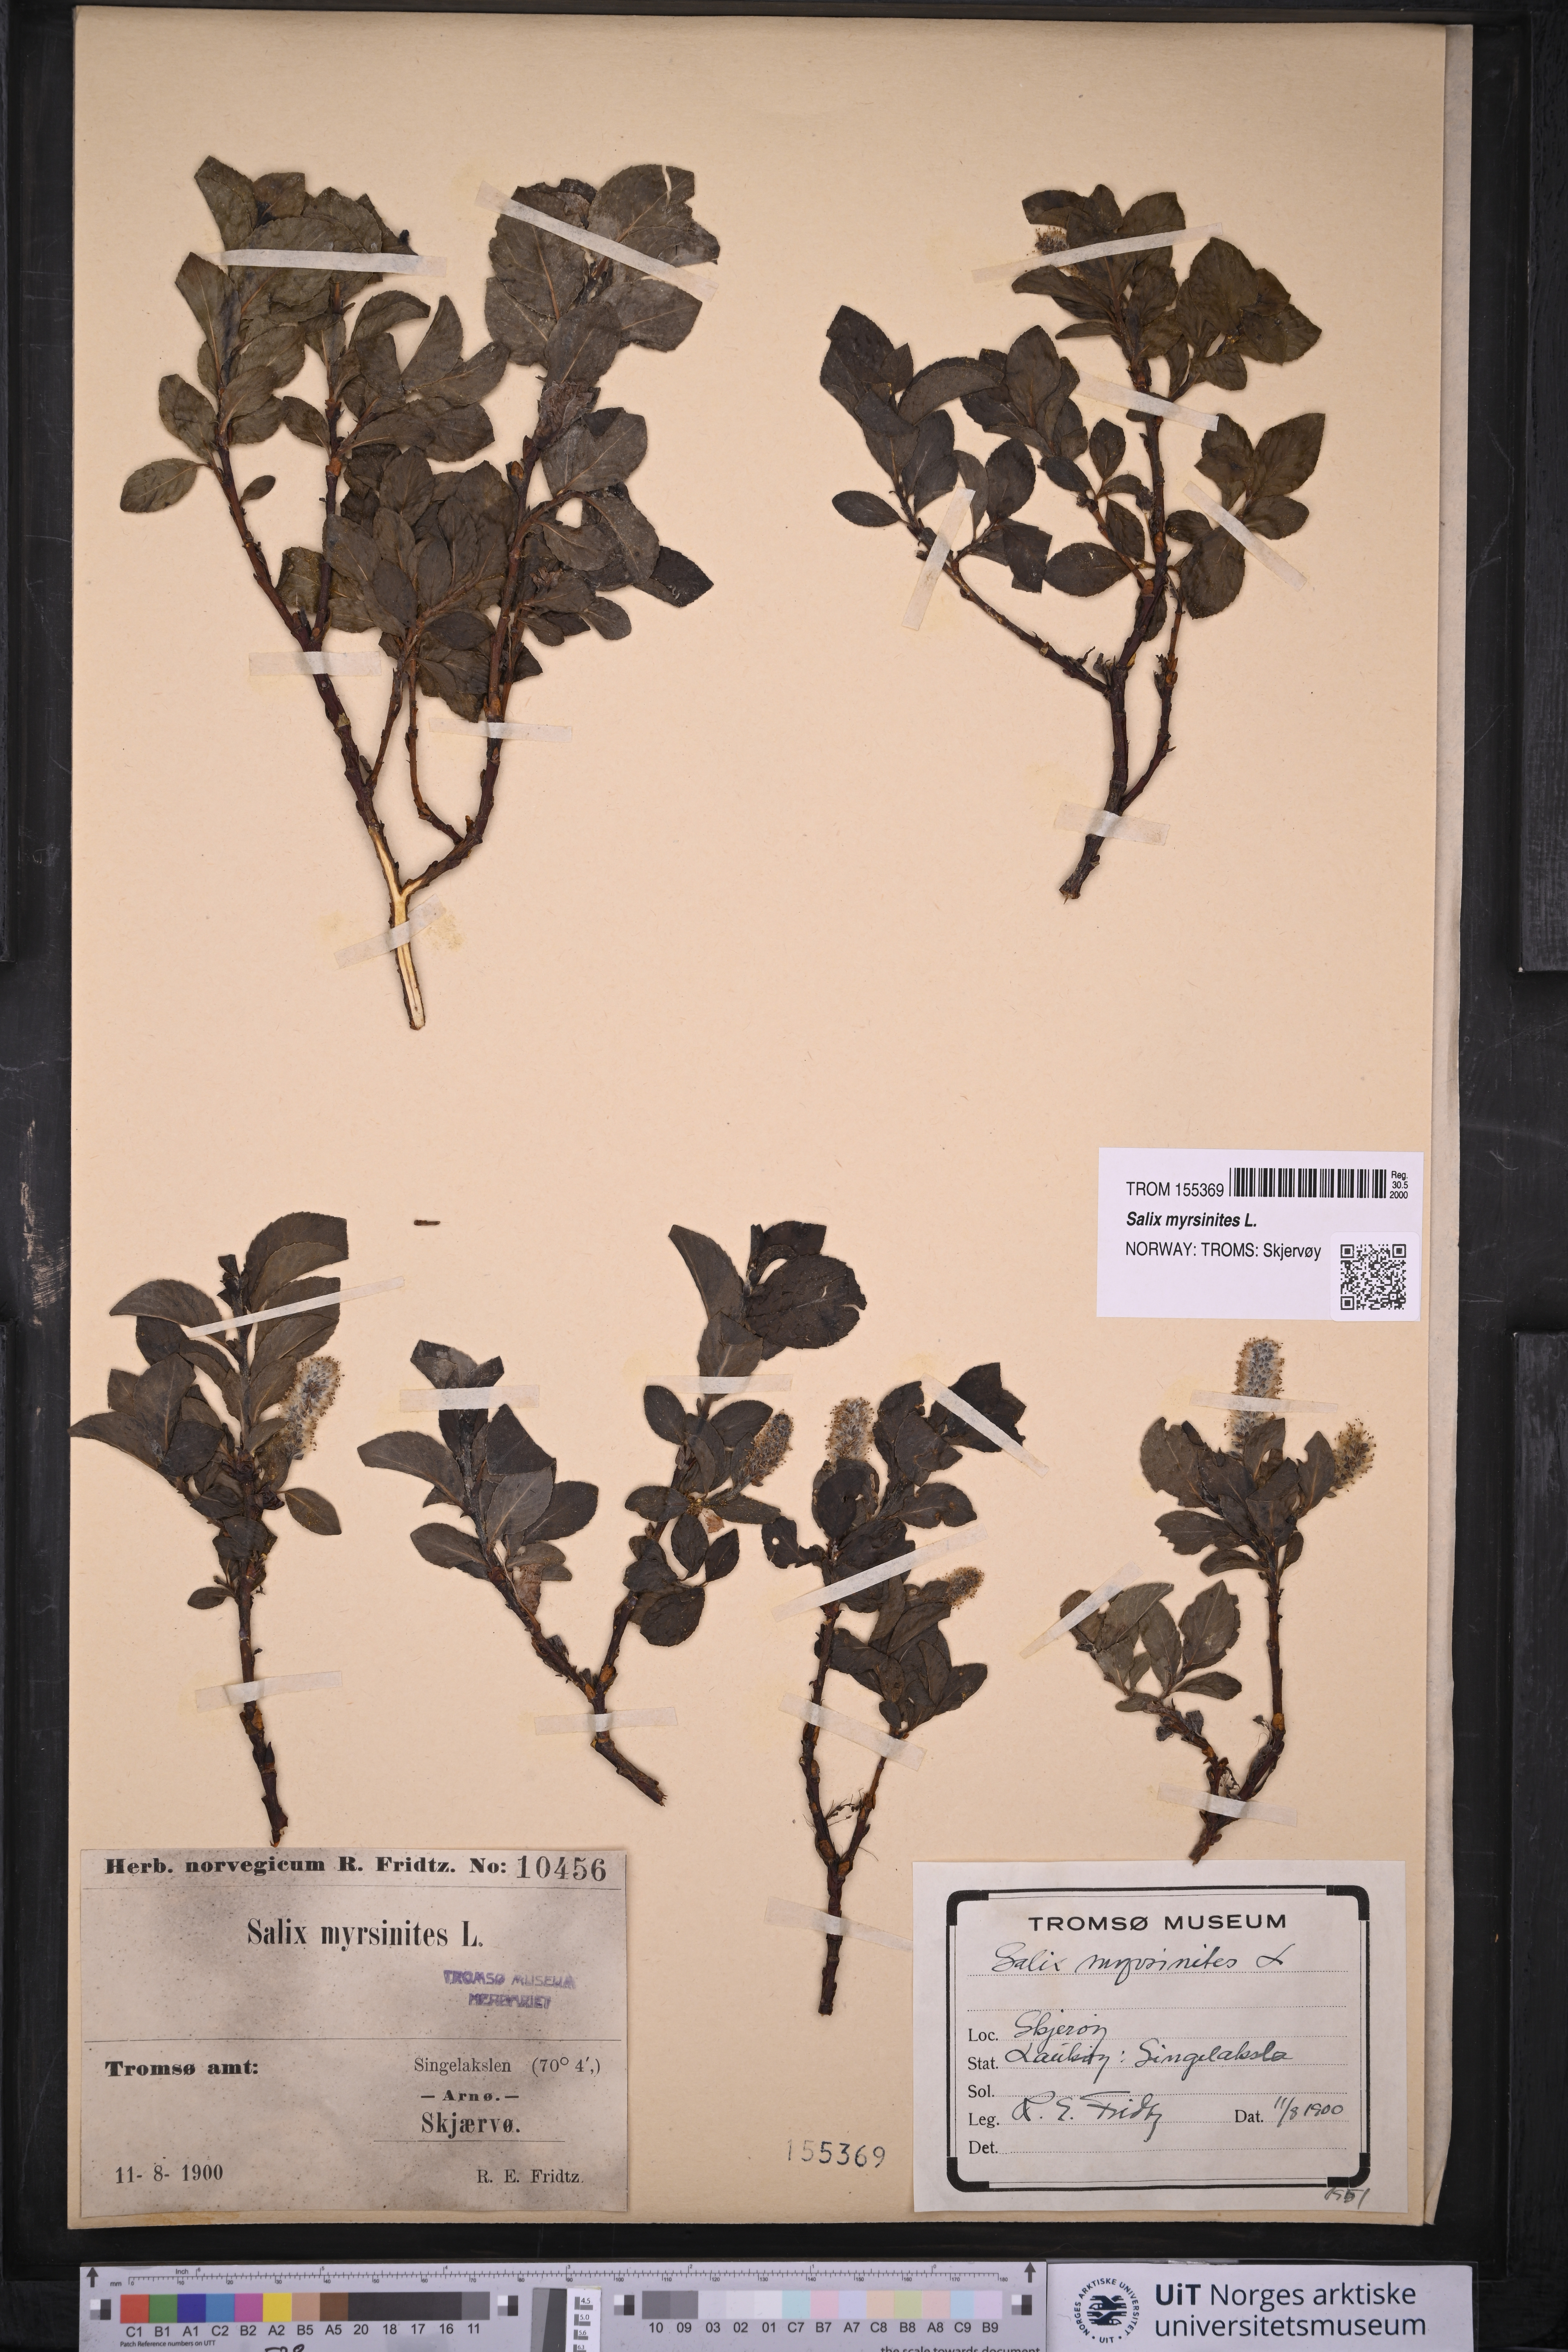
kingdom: Plantae
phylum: Tracheophyta
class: Magnoliopsida
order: Malpighiales
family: Salicaceae
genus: Salix
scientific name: Salix myrsinites
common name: Myrtle willow
